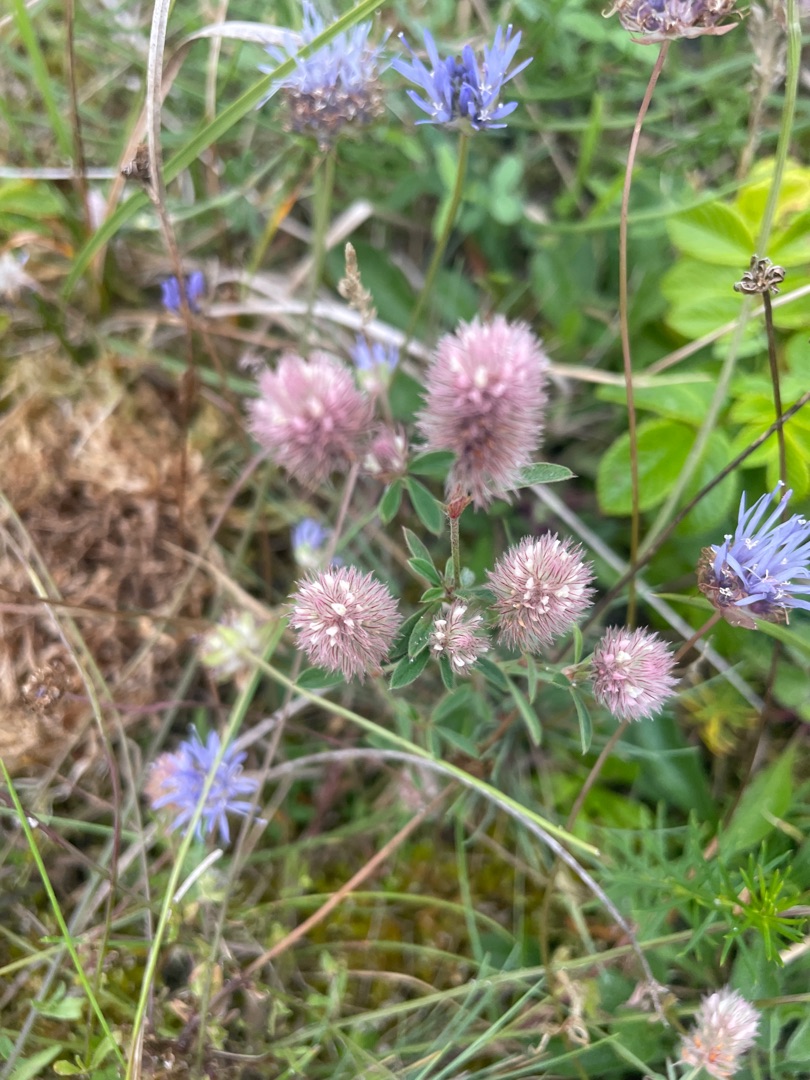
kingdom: Plantae
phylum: Tracheophyta
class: Magnoliopsida
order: Fabales
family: Fabaceae
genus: Trifolium
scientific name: Trifolium arvense
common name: Hare-kløver
